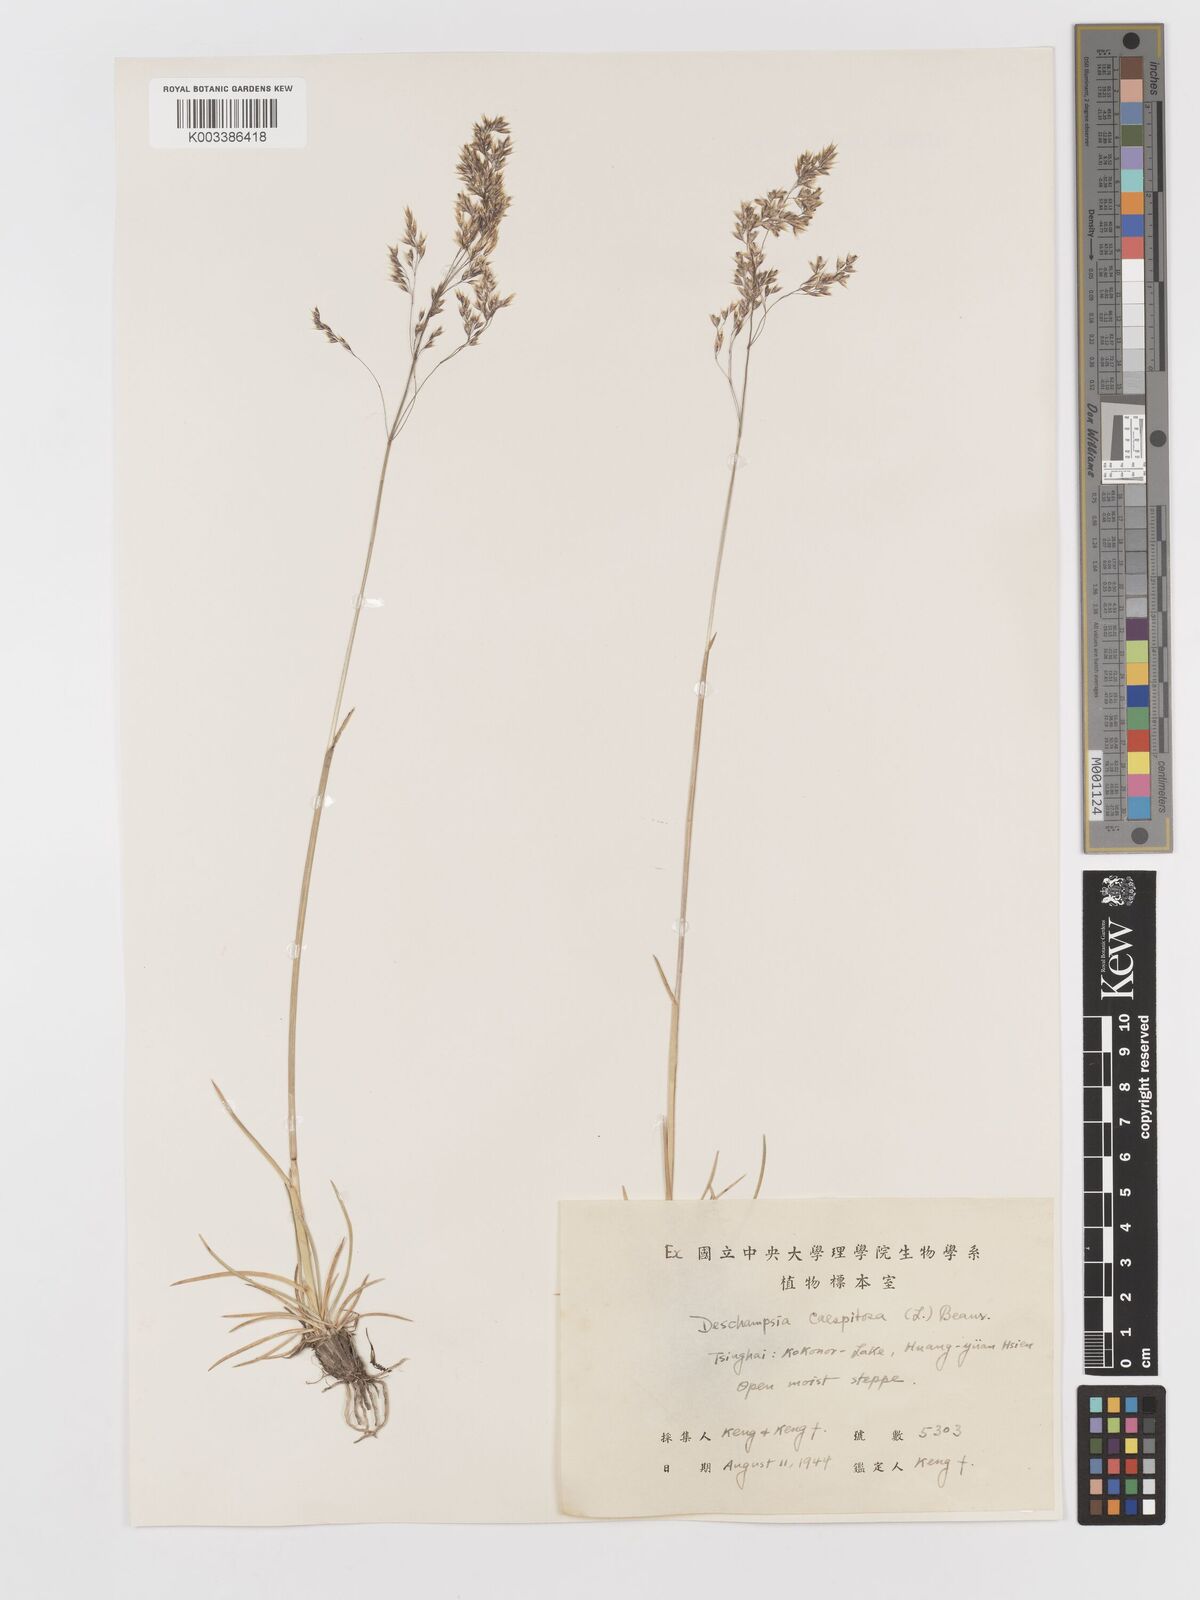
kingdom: Plantae
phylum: Tracheophyta
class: Liliopsida
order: Poales
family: Poaceae
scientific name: Poaceae
